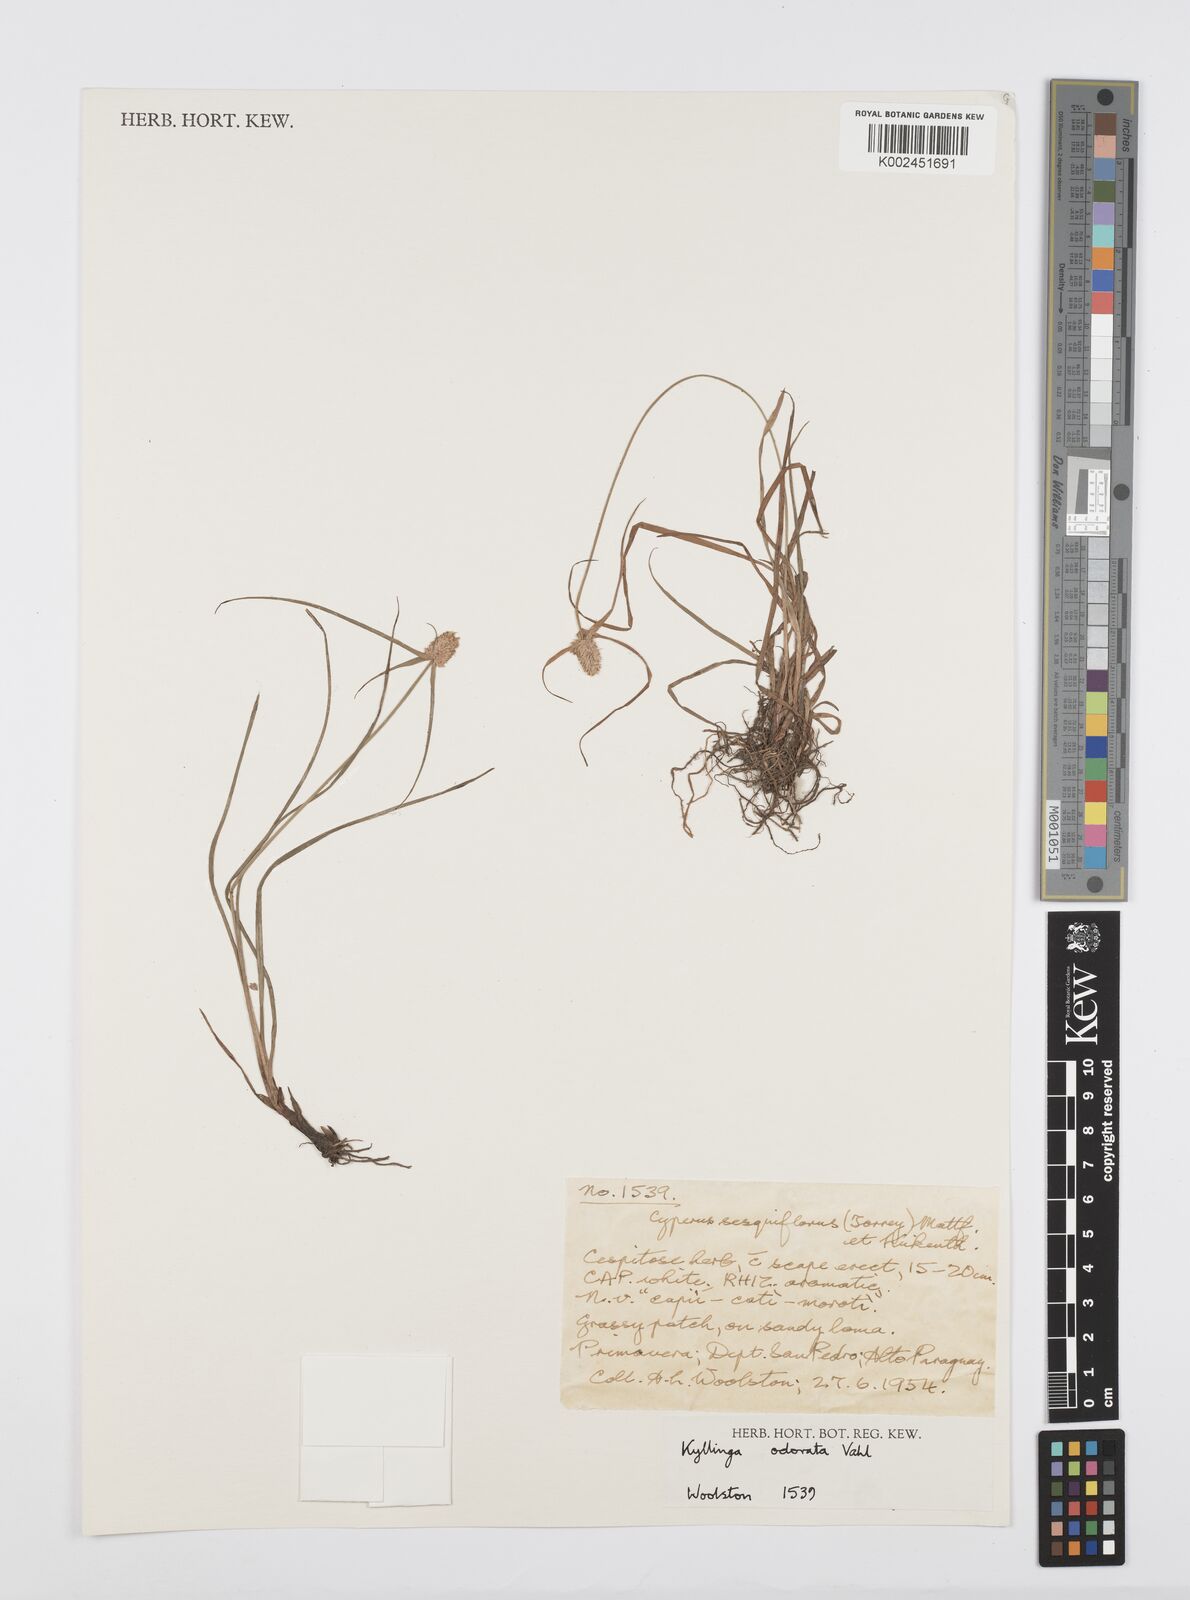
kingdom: Plantae
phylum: Tracheophyta
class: Liliopsida
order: Poales
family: Cyperaceae
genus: Cyperus
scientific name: Cyperus
